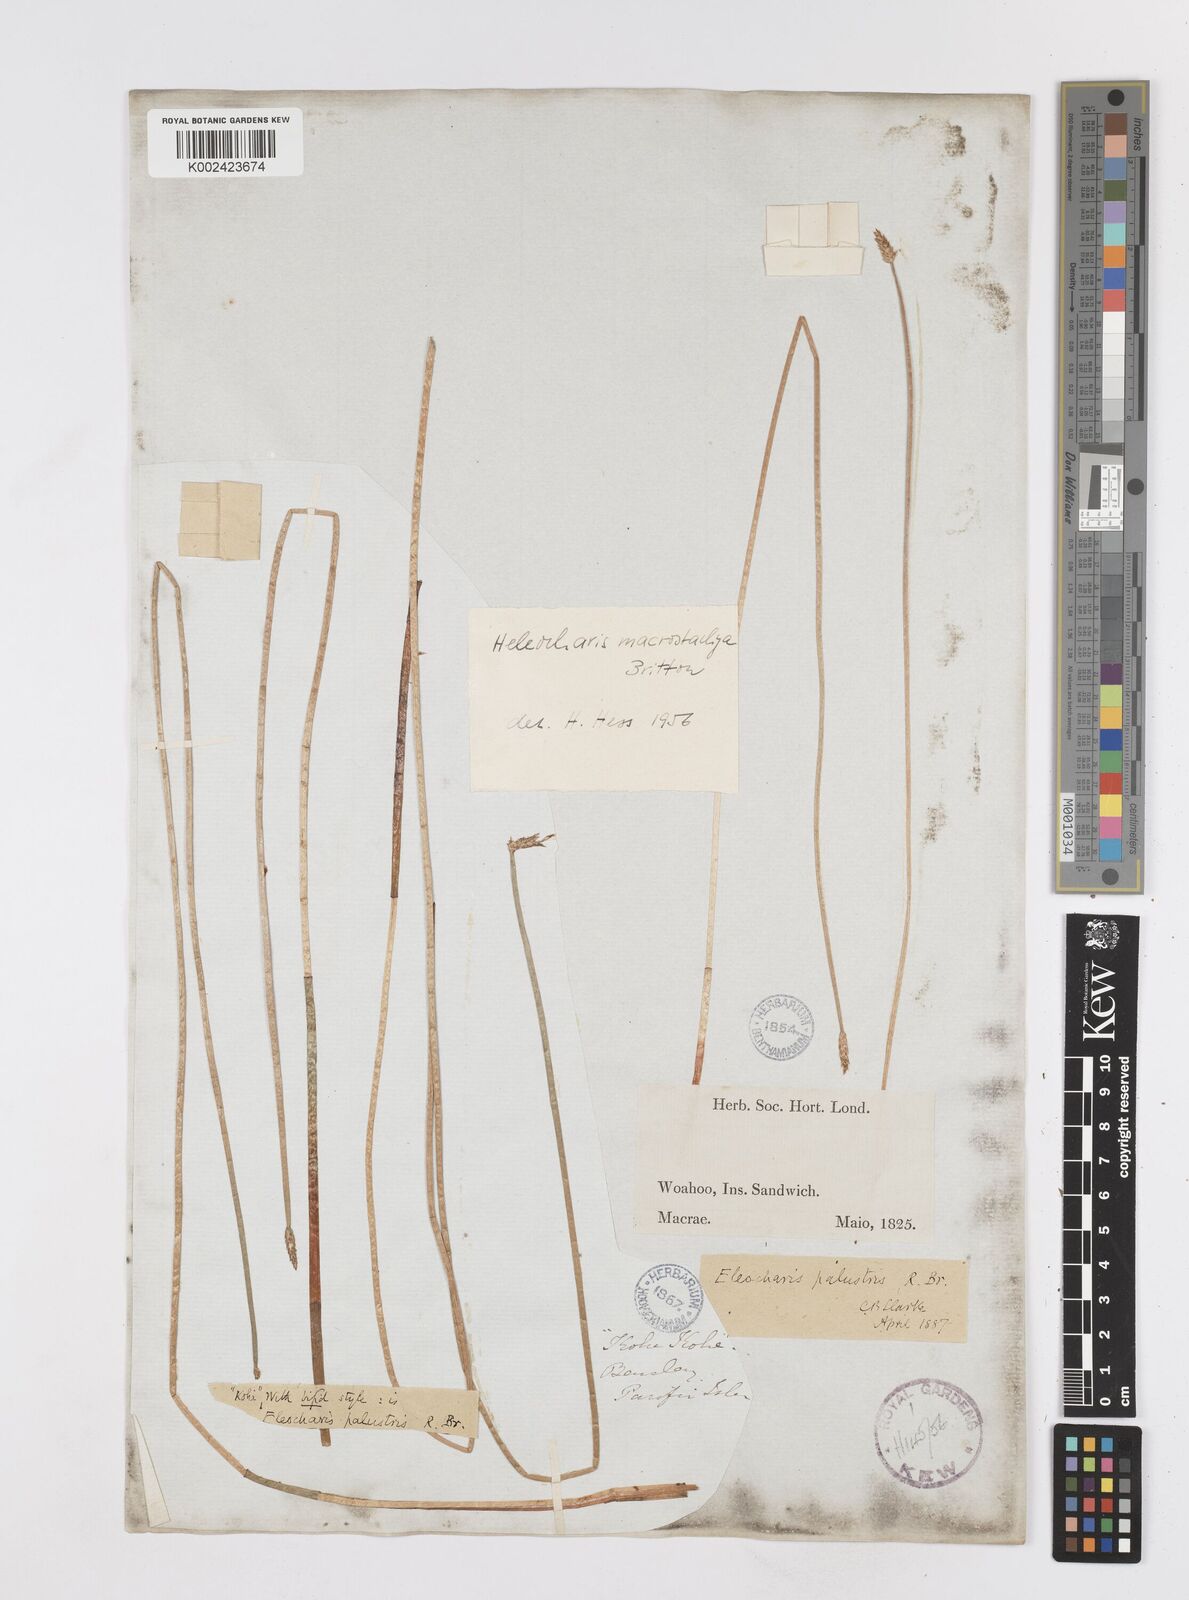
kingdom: Plantae
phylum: Tracheophyta
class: Liliopsida
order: Poales
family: Cyperaceae
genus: Eleocharis
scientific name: Eleocharis macrostachya
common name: Pale spikerush
